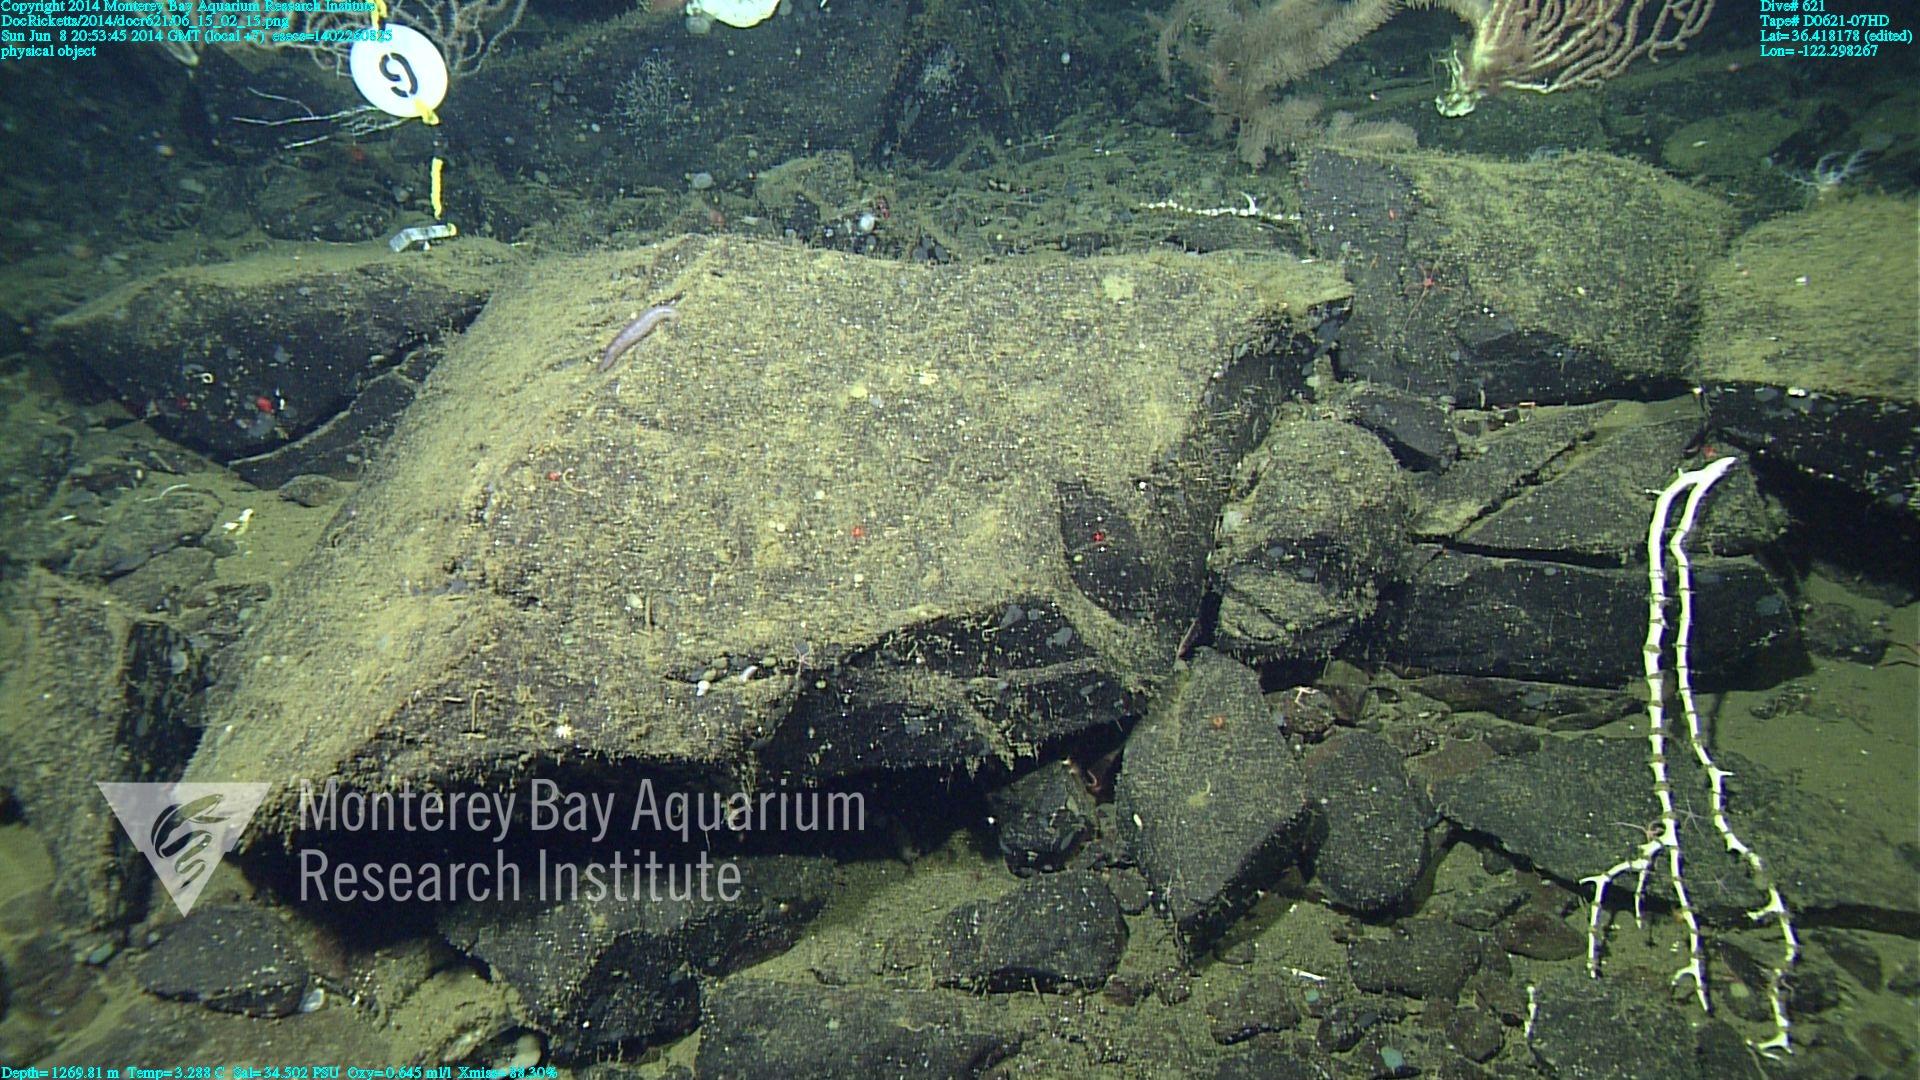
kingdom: Animalia
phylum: Cnidaria
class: Anthozoa
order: Scleralcyonacea
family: Keratoisididae
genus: Keratoisis
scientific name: Keratoisis
